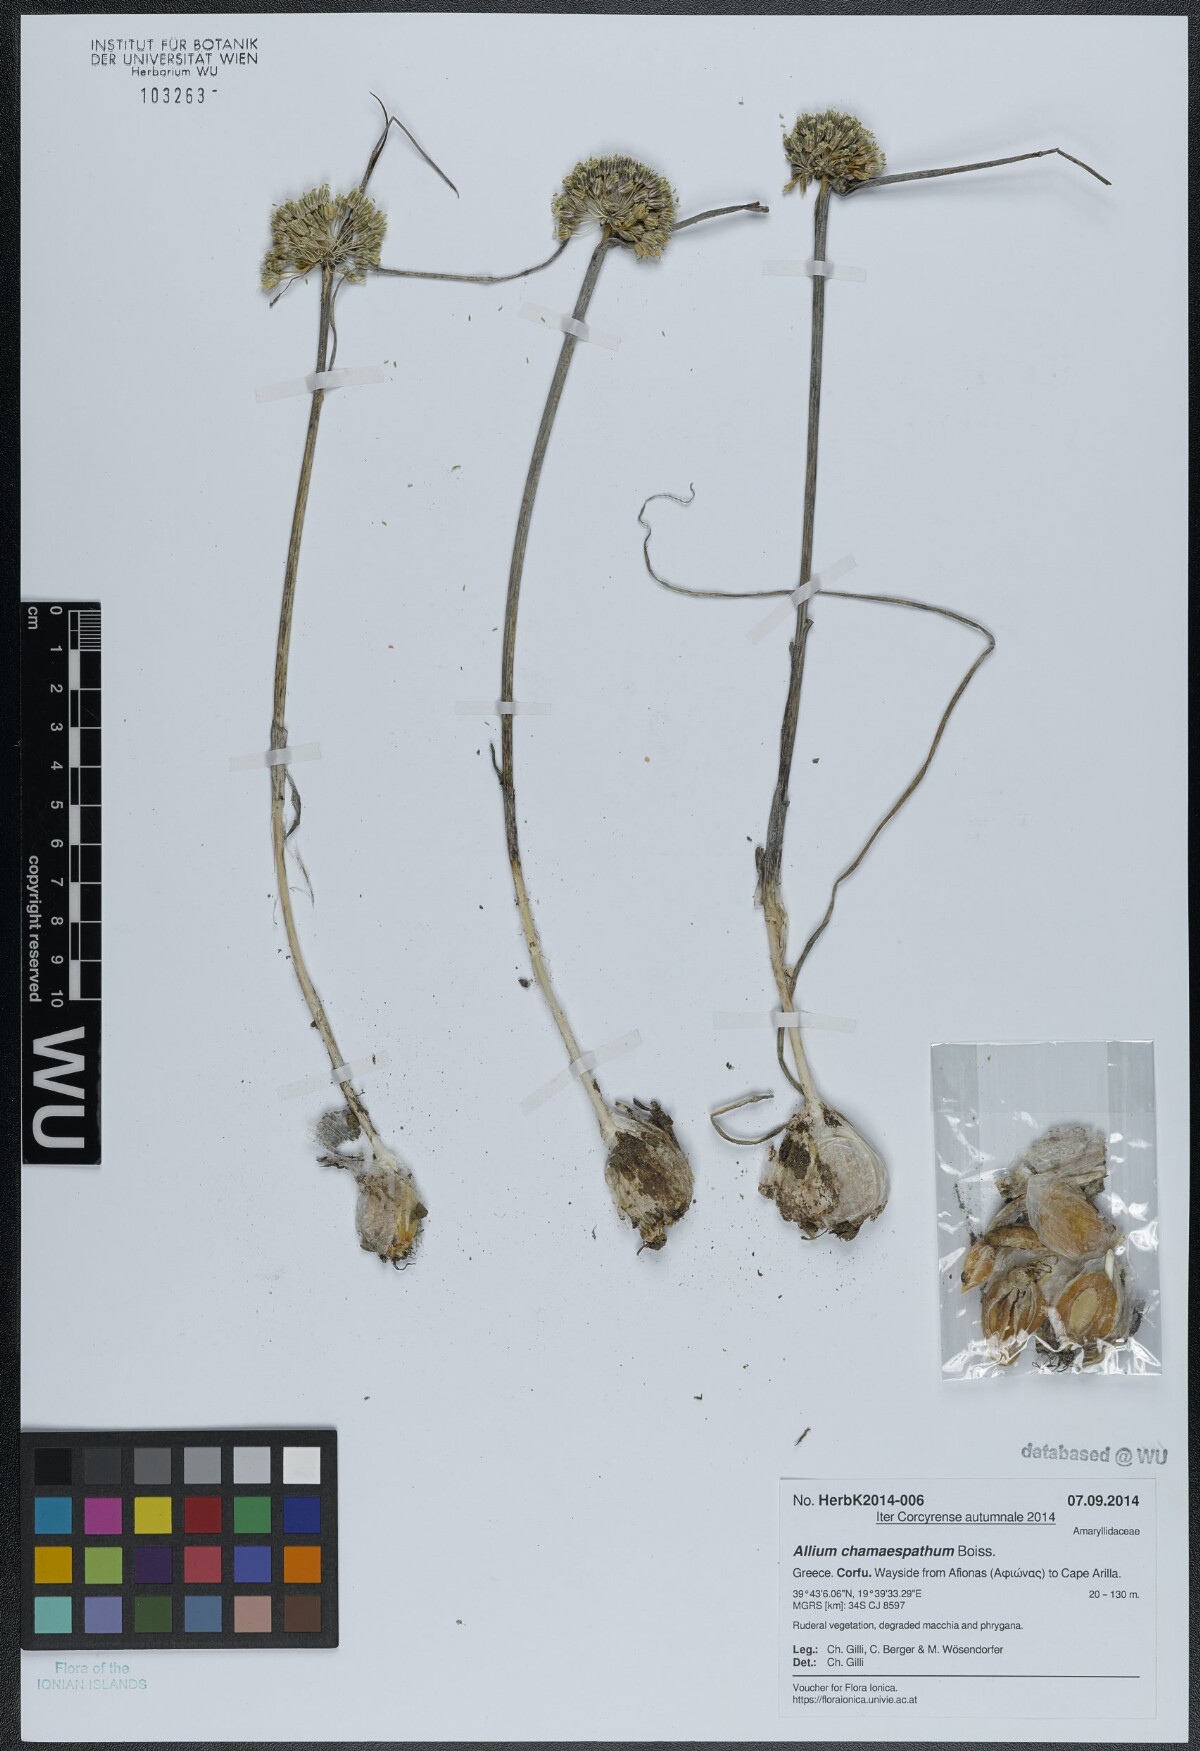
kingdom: Plantae
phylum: Tracheophyta
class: Liliopsida
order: Asparagales
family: Amaryllidaceae
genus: Allium
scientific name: Allium chamaespathum
